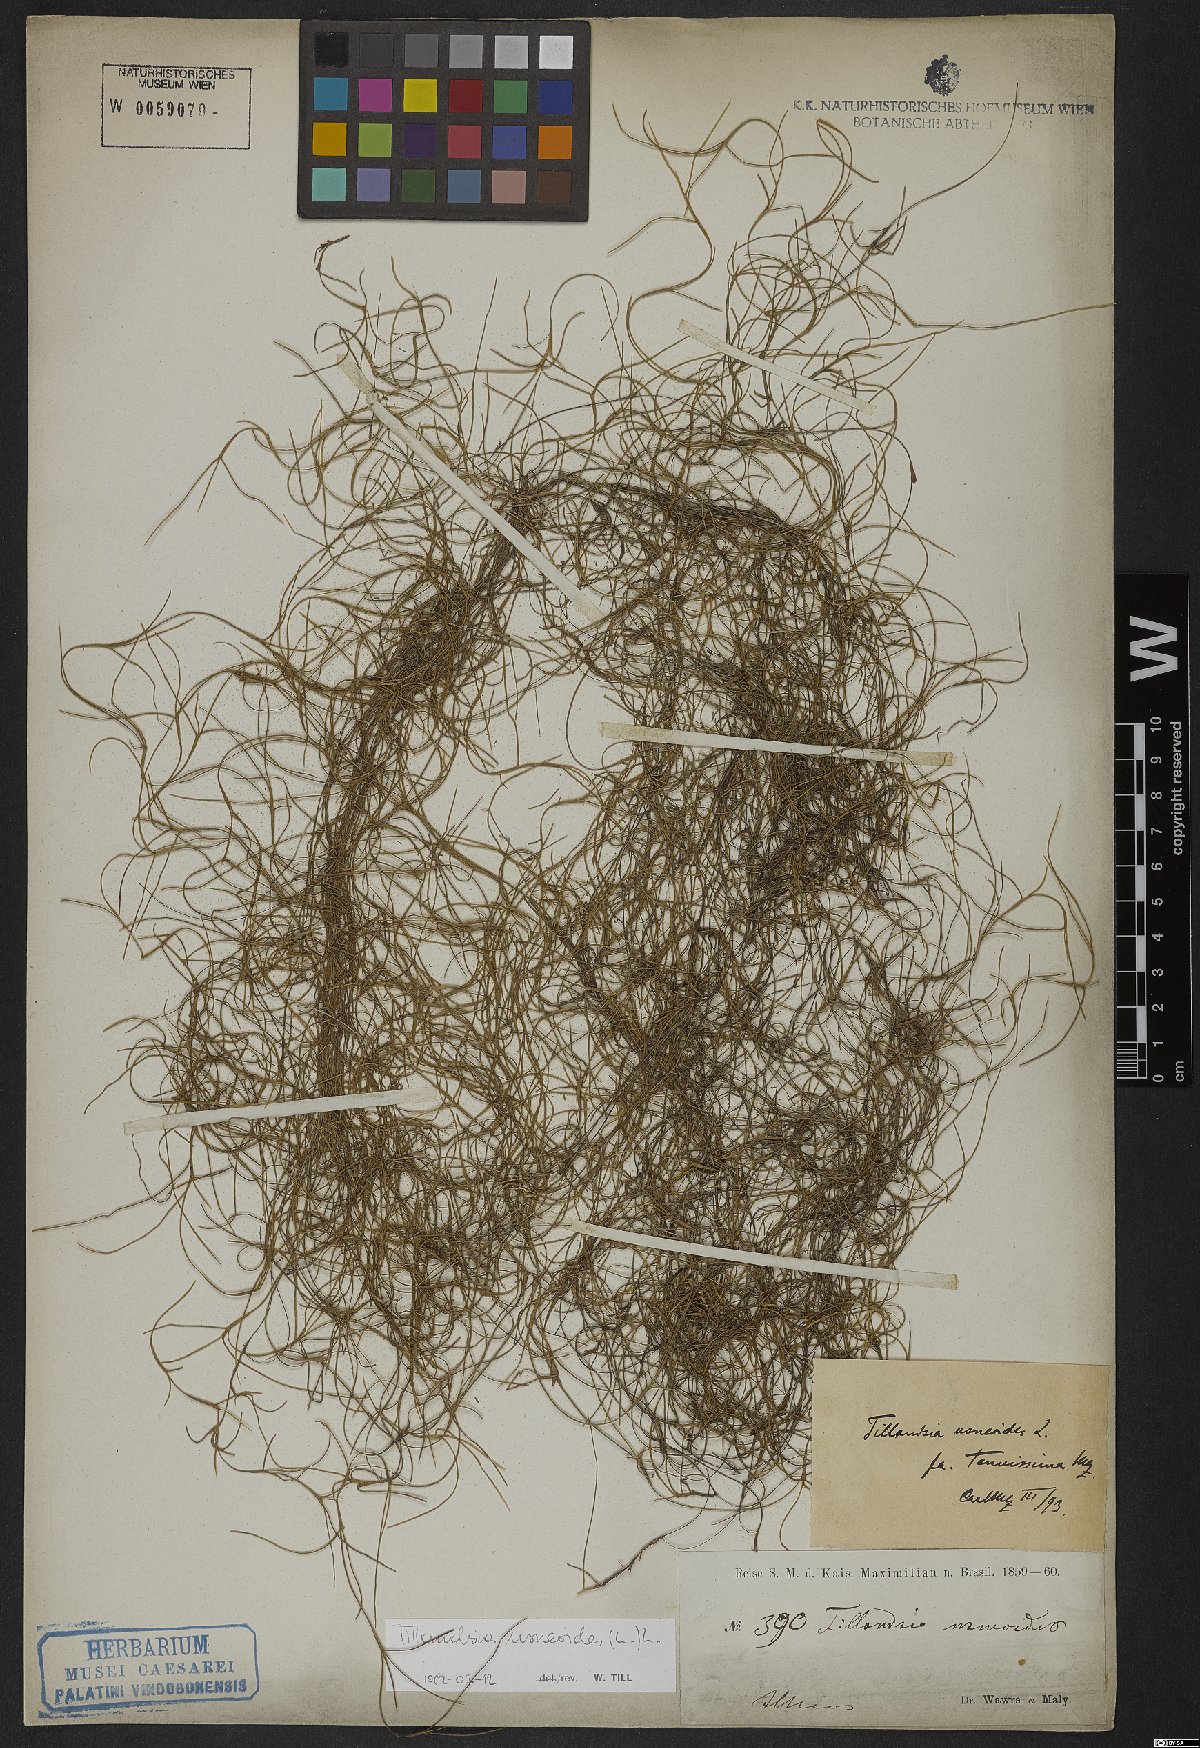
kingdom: Plantae
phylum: Tracheophyta
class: Liliopsida
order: Poales
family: Bromeliaceae
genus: Tillandsia
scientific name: Tillandsia usneoides
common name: Spanish moss
